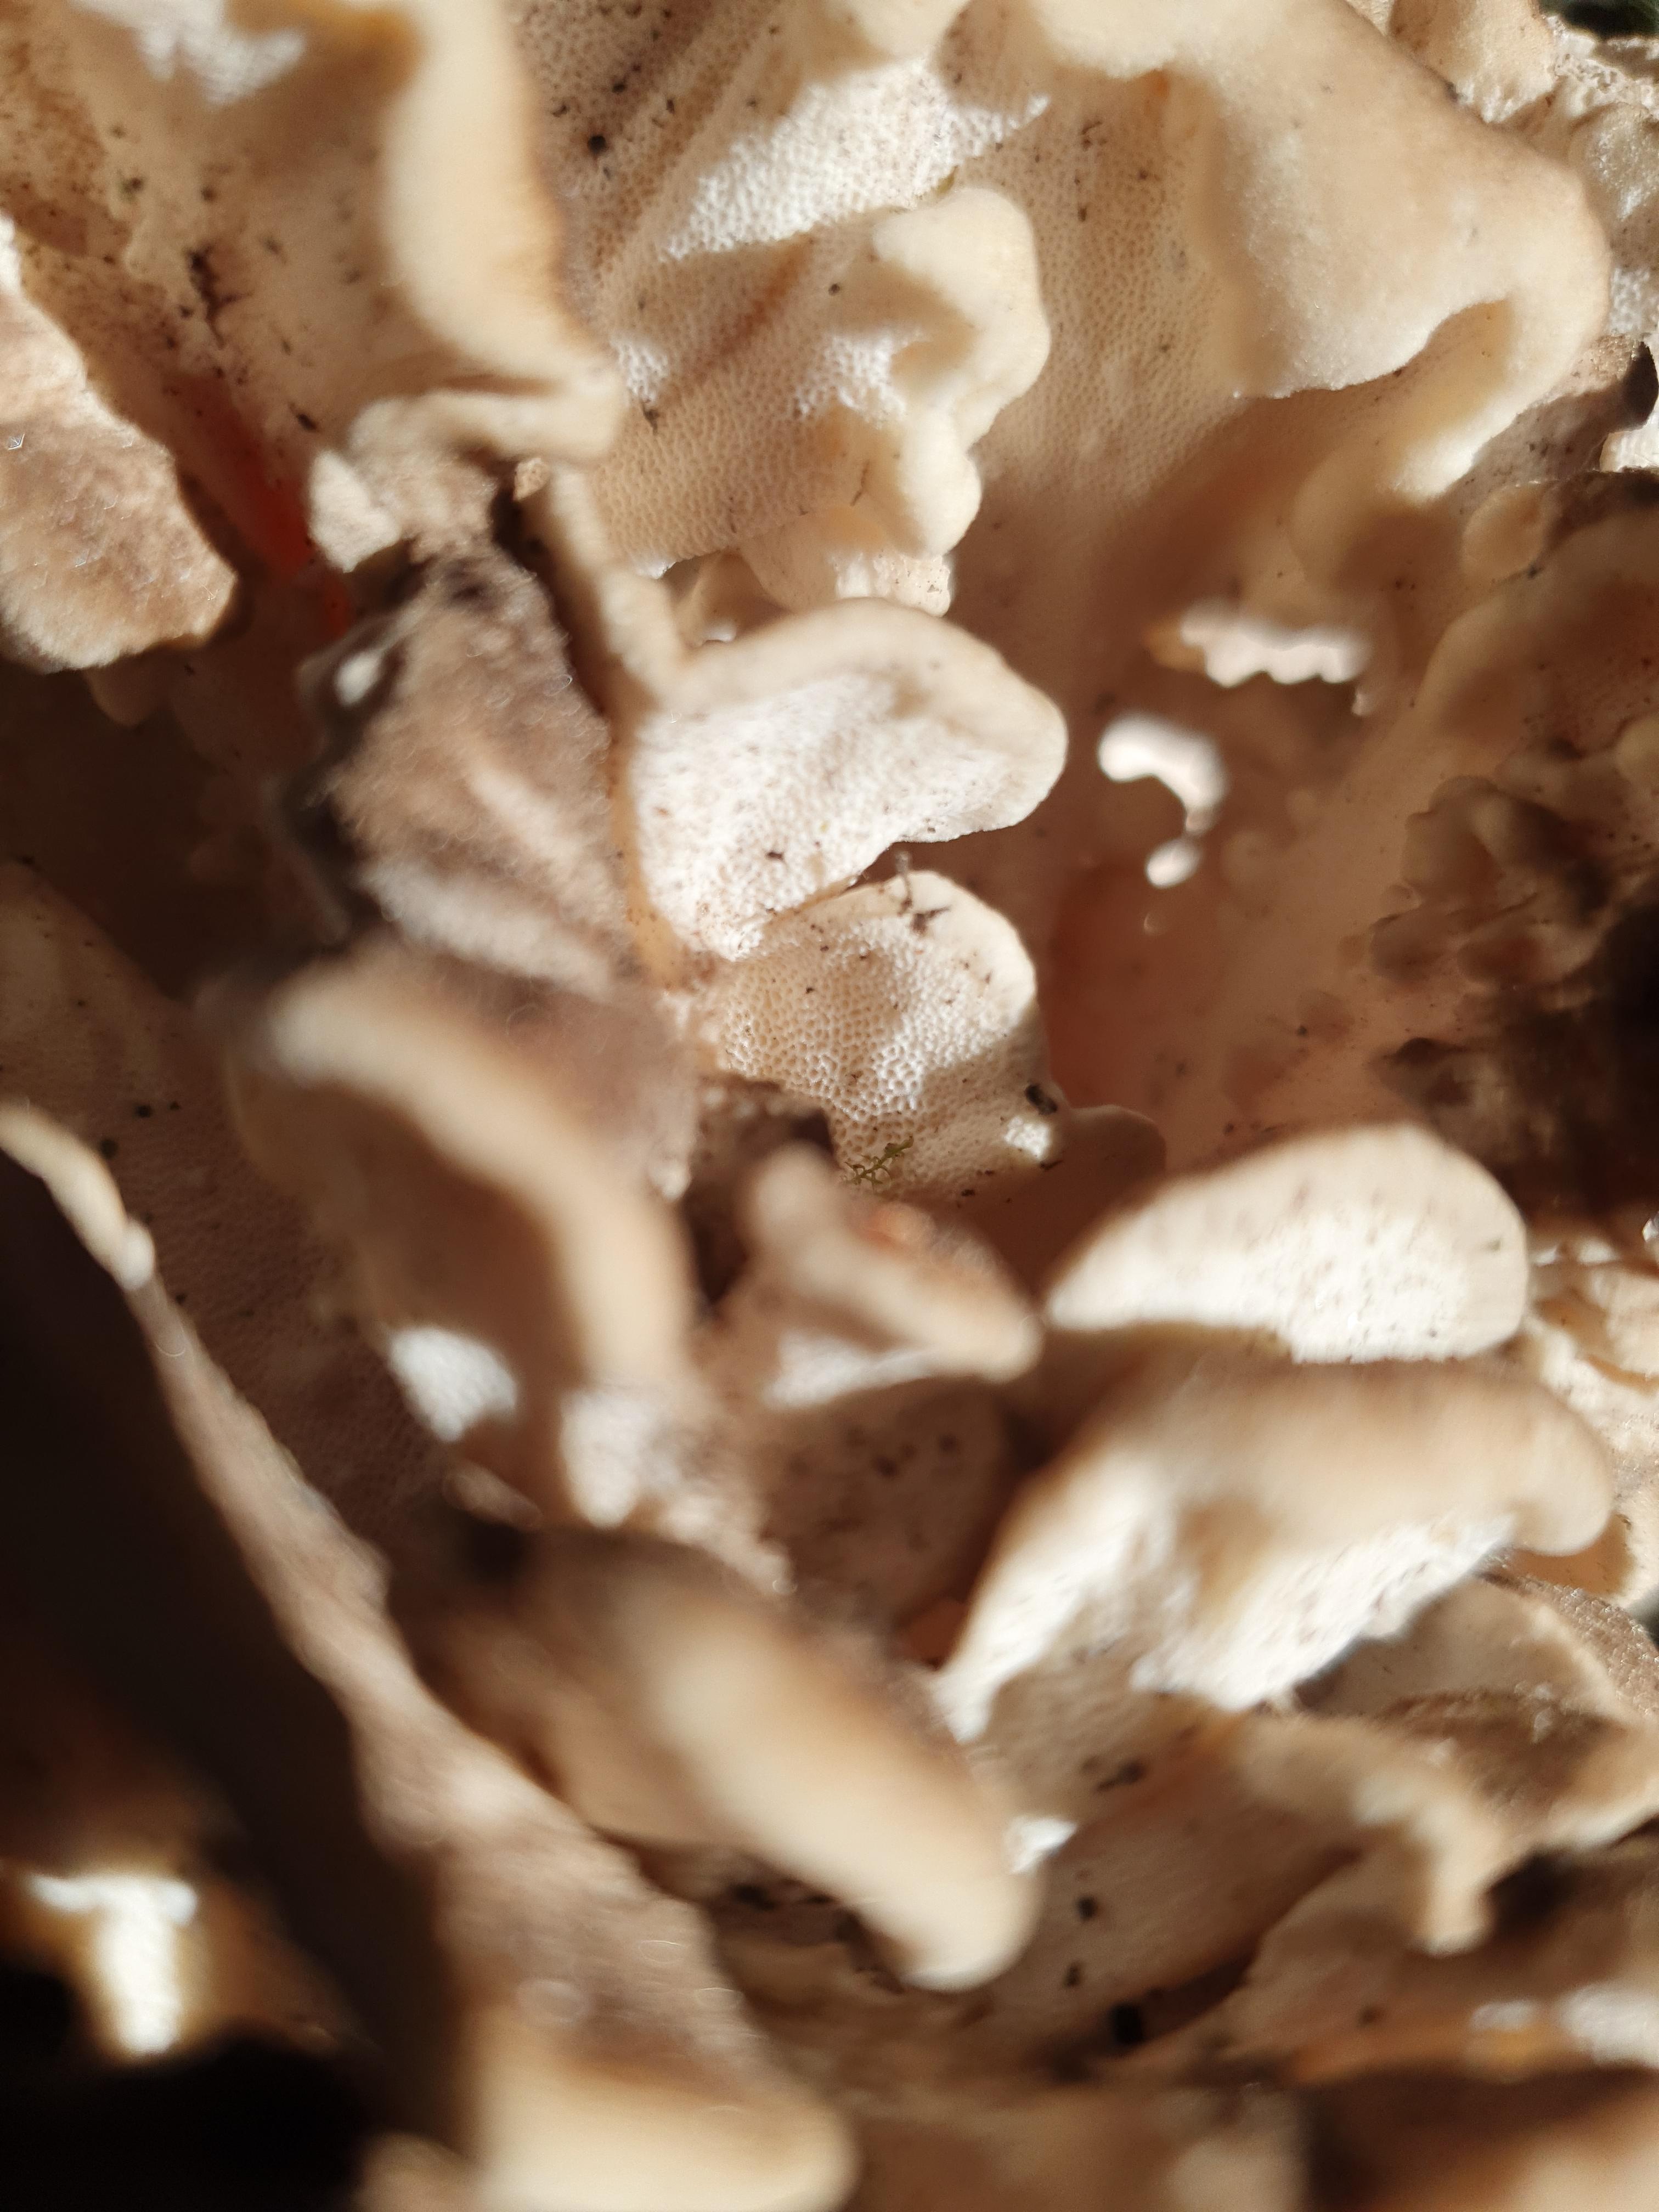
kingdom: Fungi
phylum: Basidiomycota
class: Agaricomycetes
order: Polyporales
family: Grifolaceae
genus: Grifola
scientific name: Grifola frondosa
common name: tueporesvamp
